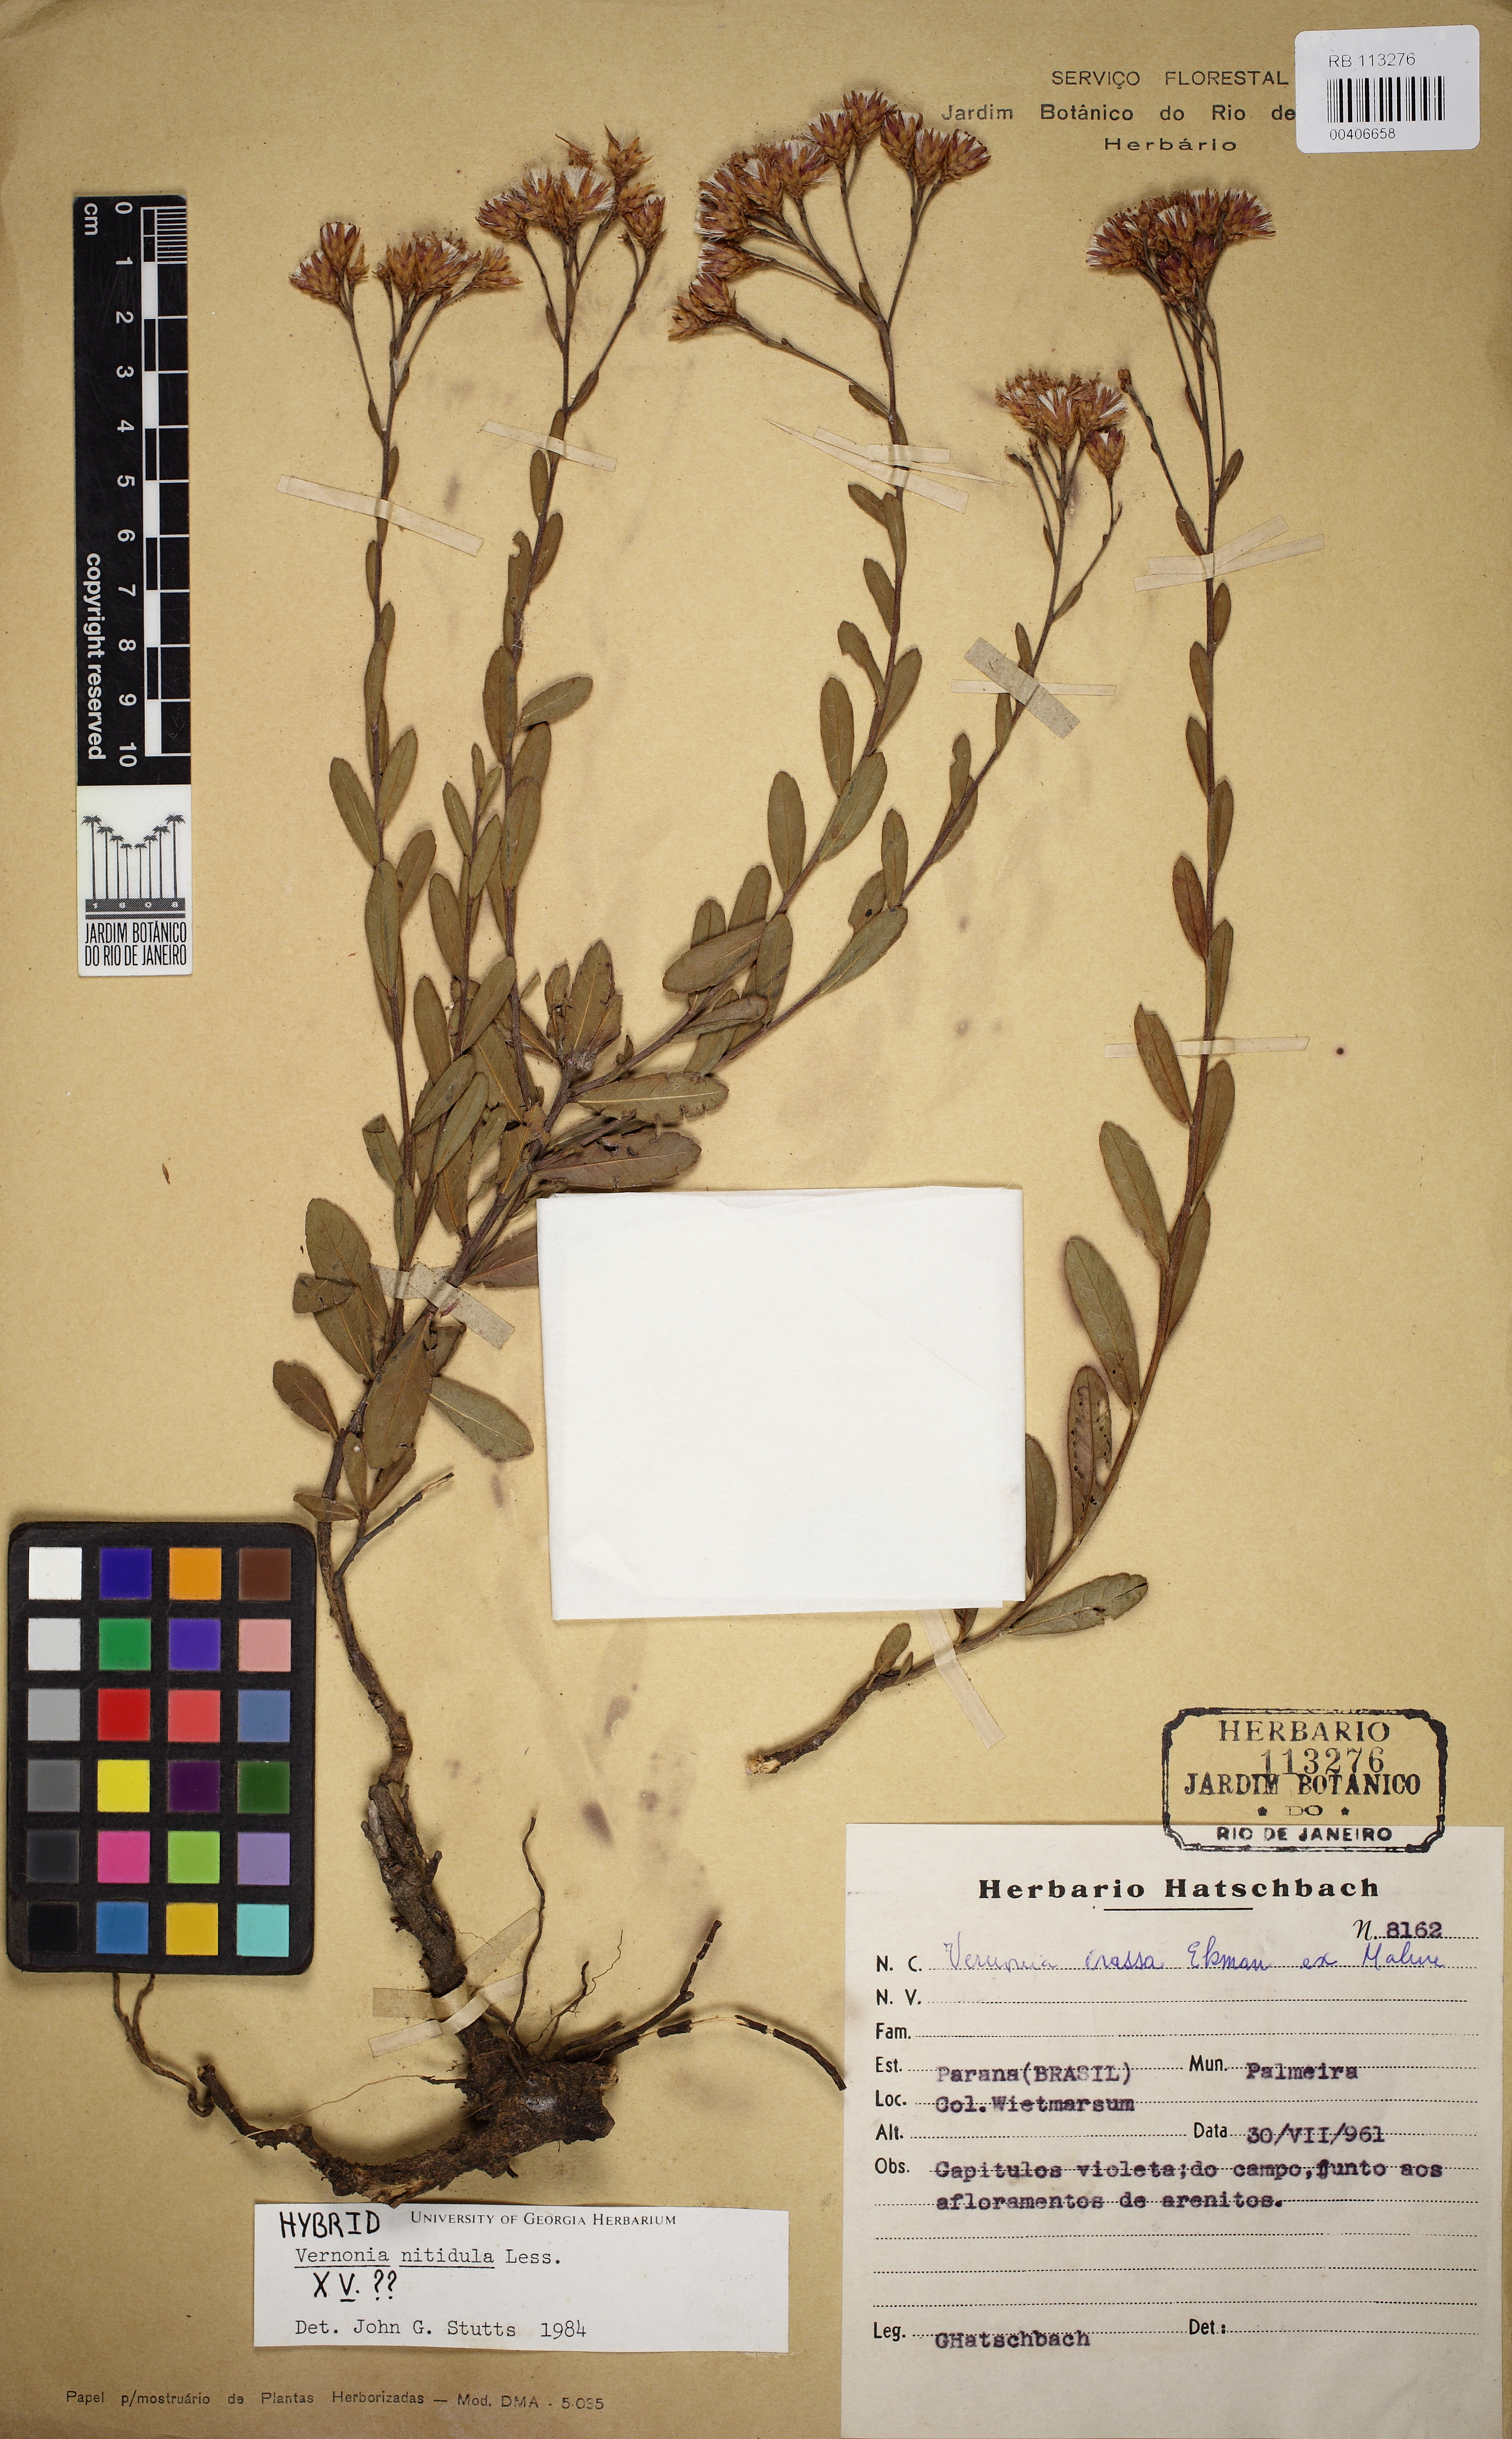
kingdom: Plantae
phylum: Tracheophyta
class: Magnoliopsida
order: Asterales
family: Asteraceae
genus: Vernonanthura
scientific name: Vernonanthura montevidensis
